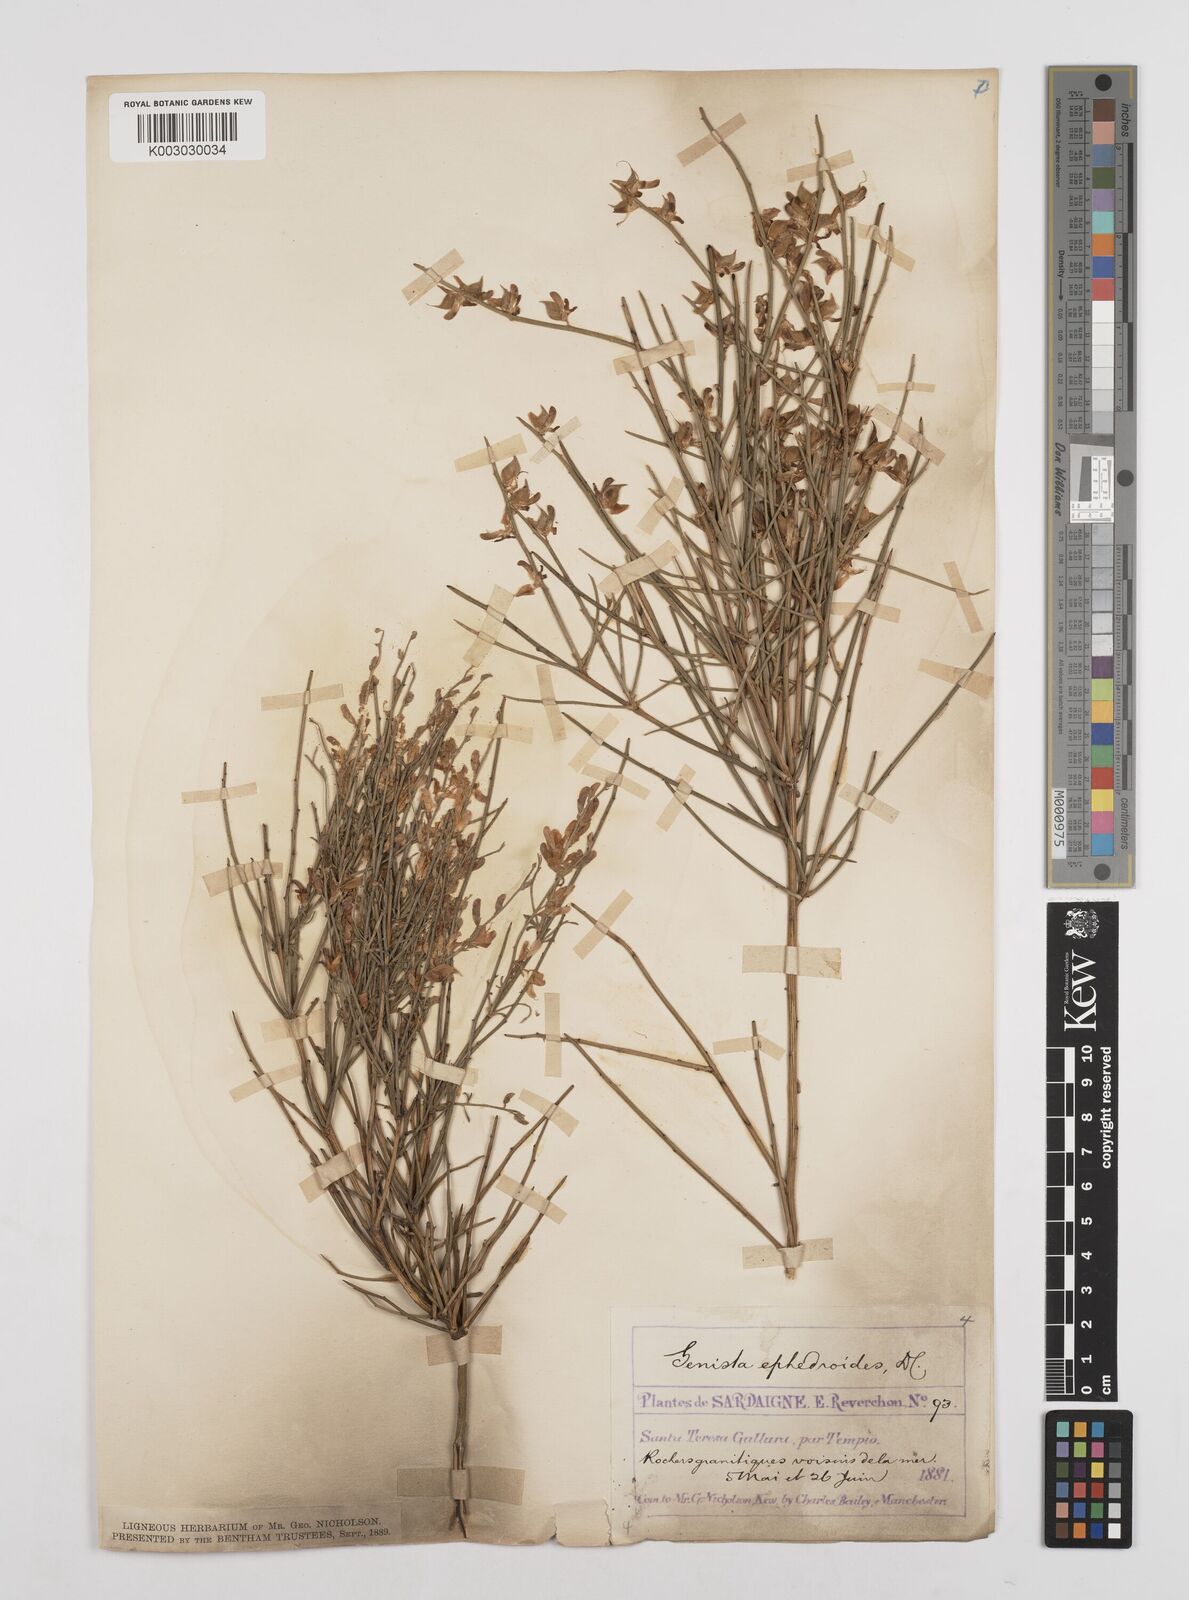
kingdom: Plantae
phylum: Tracheophyta
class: Magnoliopsida
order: Fabales
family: Fabaceae
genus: Genista
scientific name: Genista ephedroides
